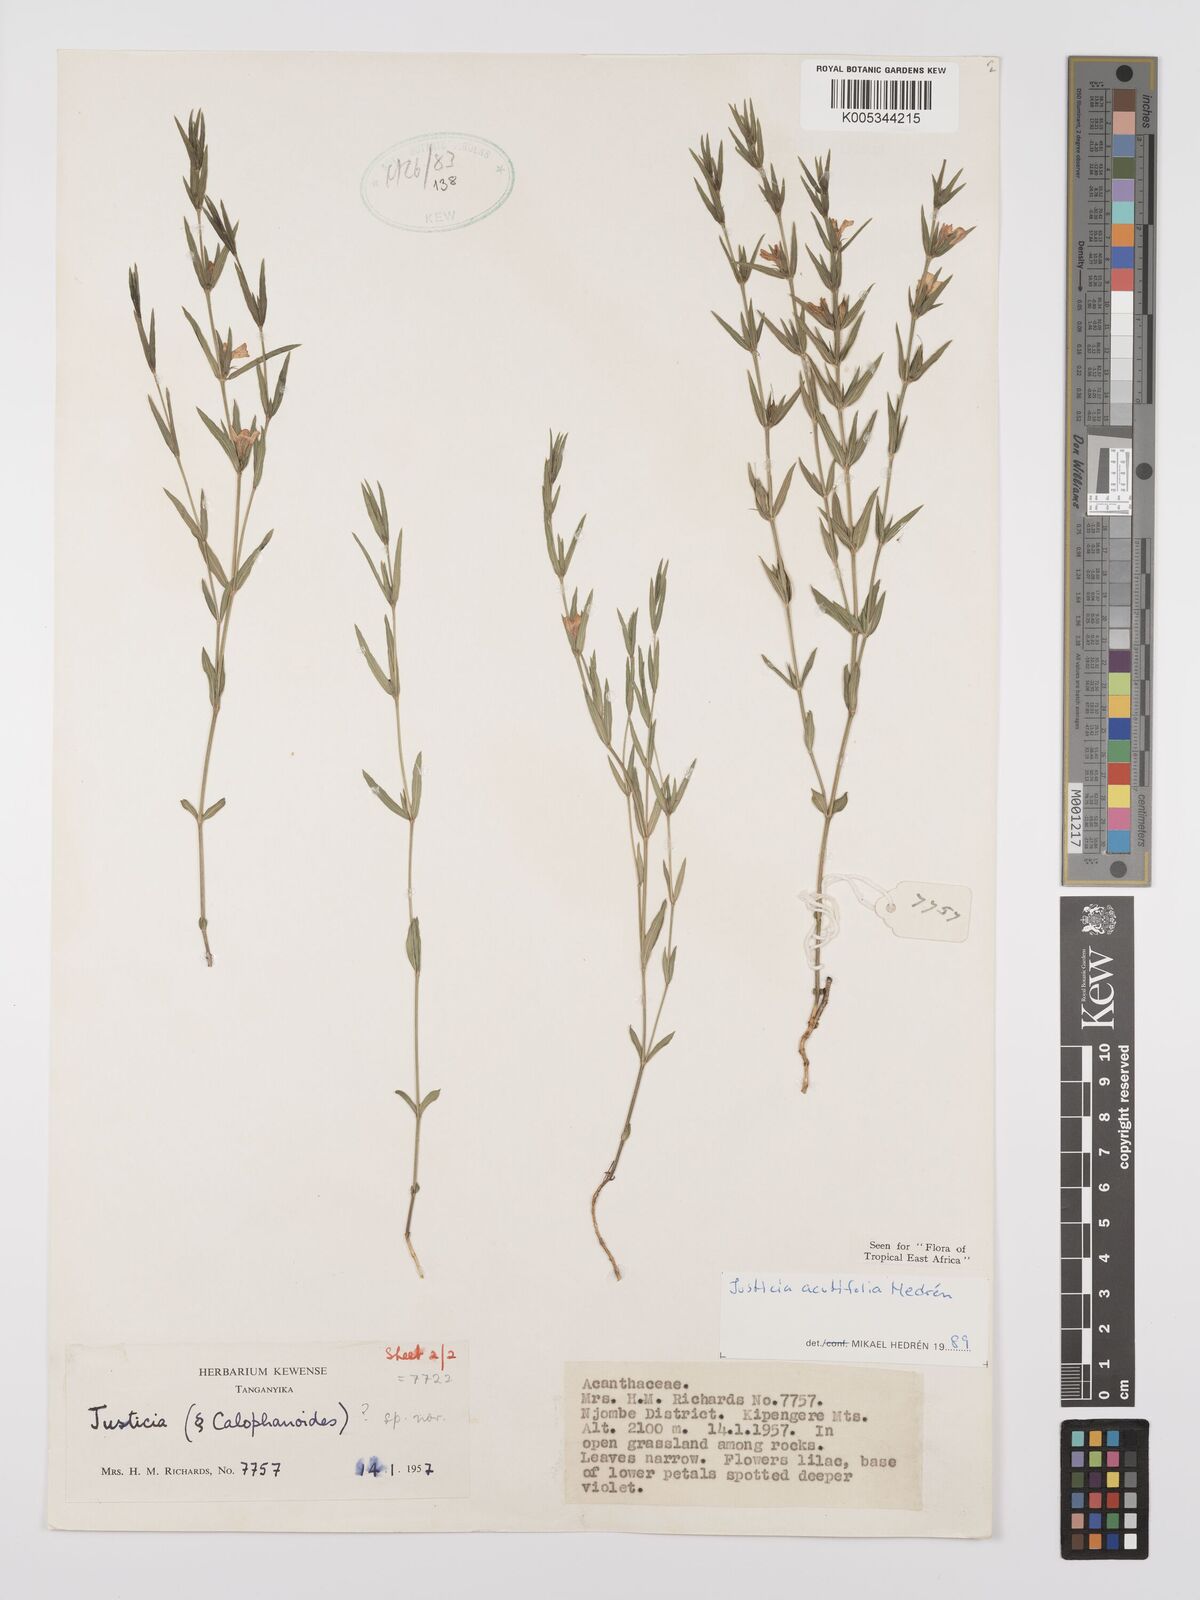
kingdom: Plantae
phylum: Tracheophyta
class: Magnoliopsida
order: Lamiales
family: Acanthaceae
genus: Justicia
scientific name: Justicia acutifolia
